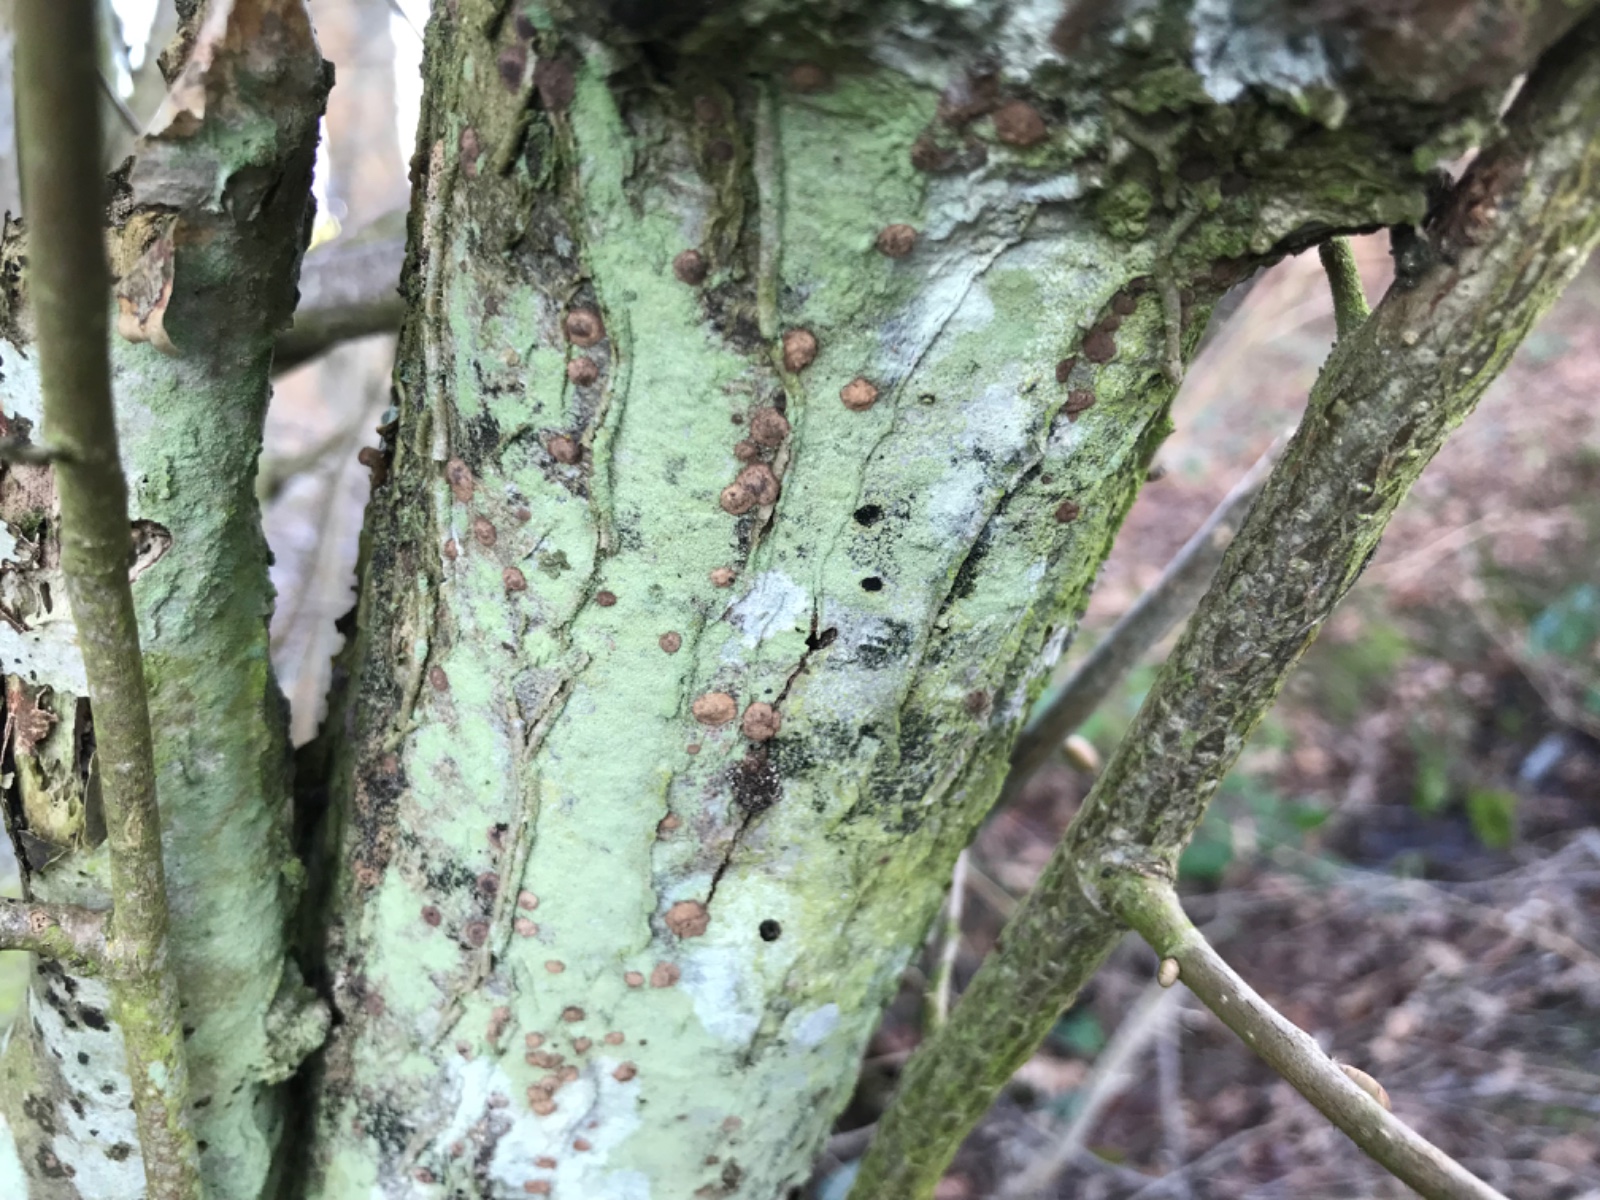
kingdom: Fungi
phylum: Ascomycota
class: Sordariomycetes
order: Xylariales
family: Hypoxylaceae
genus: Hypoxylon
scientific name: Hypoxylon fuscum
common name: kegleformet kulbær
